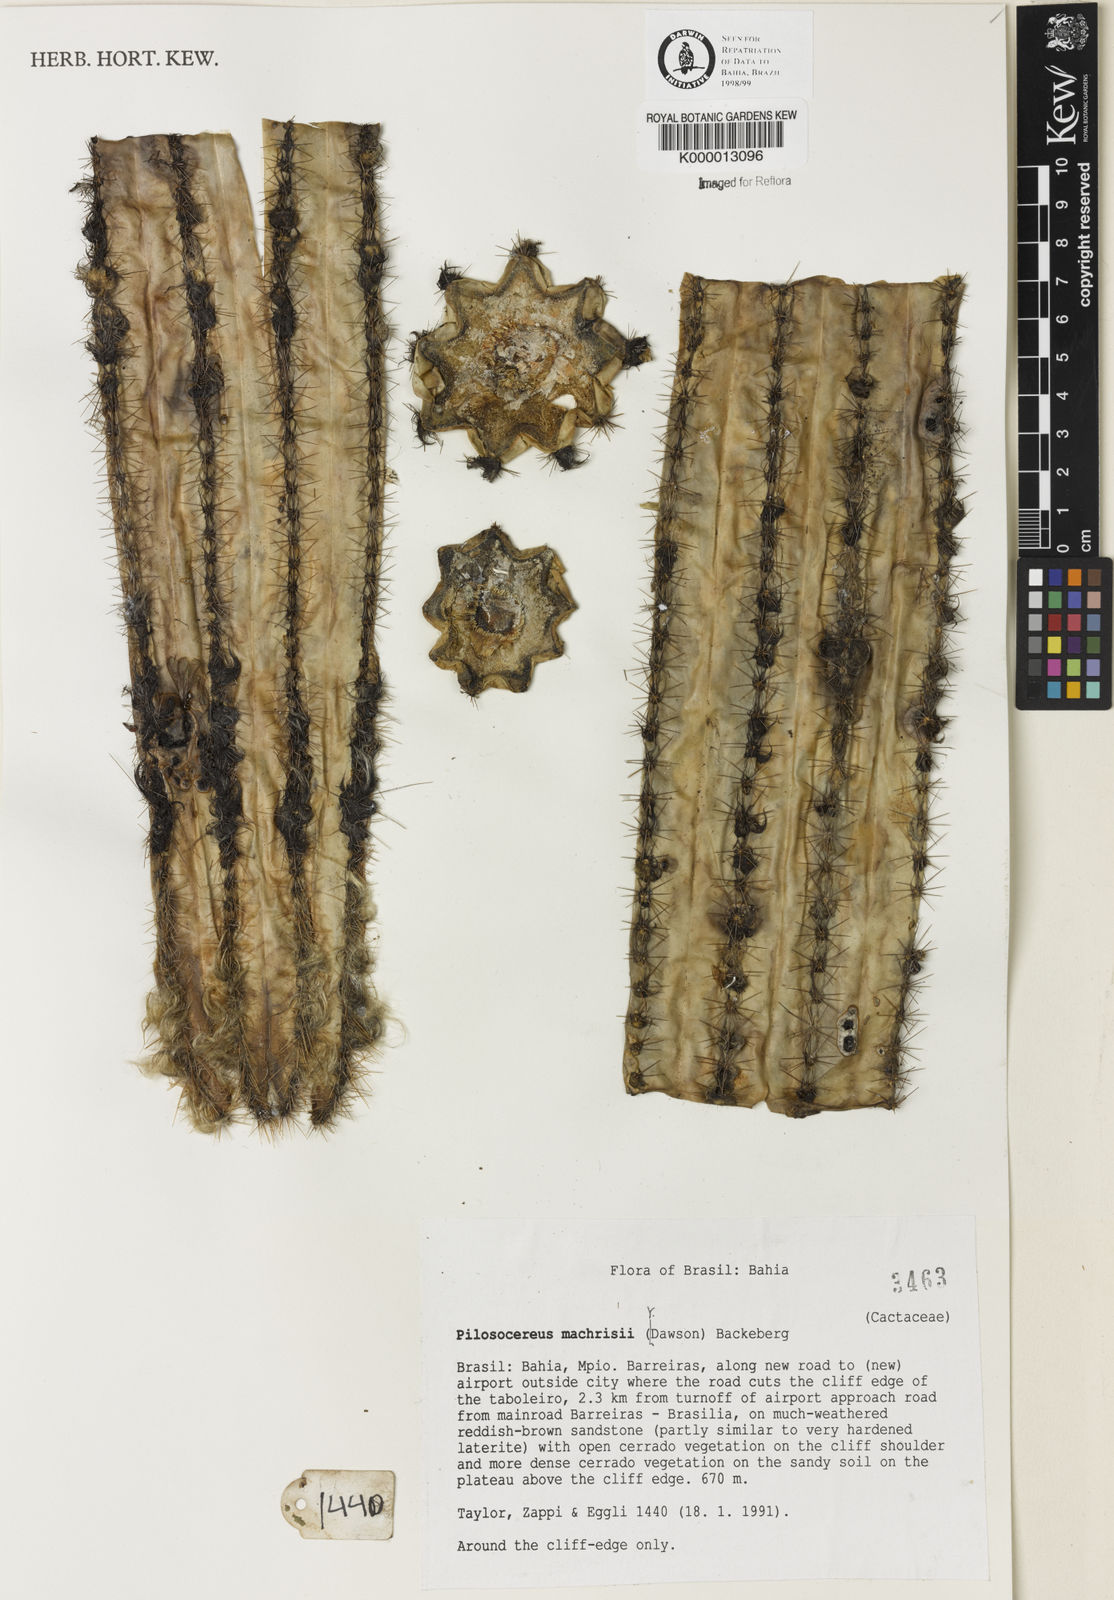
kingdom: Plantae
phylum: Tracheophyta
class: Magnoliopsida
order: Caryophyllales
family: Cactaceae
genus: Pilosocereus
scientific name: Pilosocereus machrisii
